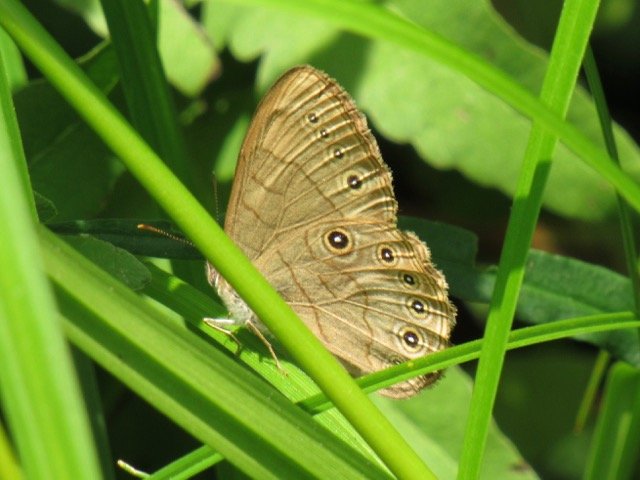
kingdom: Animalia
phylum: Arthropoda
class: Insecta
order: Lepidoptera
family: Nymphalidae
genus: Lethe
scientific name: Lethe eurydice
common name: Appalachian Eyed Brown
